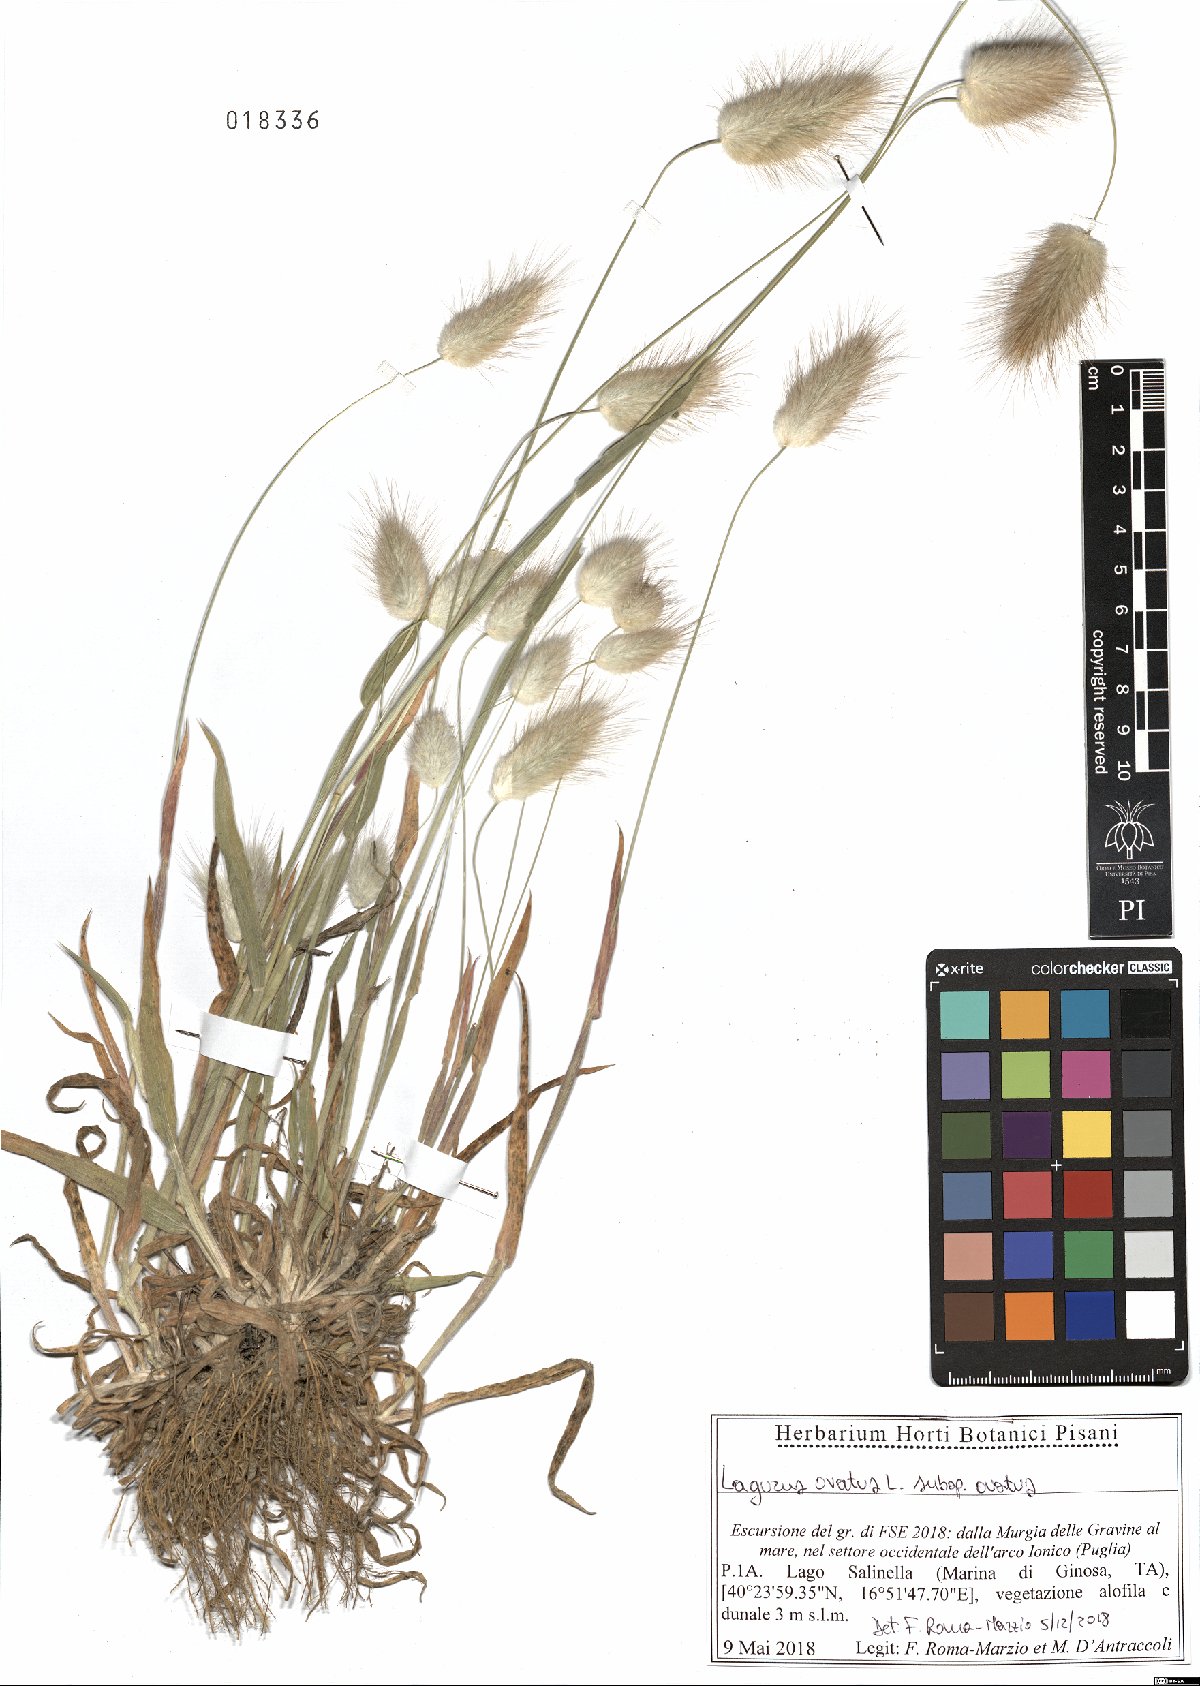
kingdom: Plantae
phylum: Tracheophyta
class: Liliopsida
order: Poales
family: Poaceae
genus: Lagurus
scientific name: Lagurus ovatus
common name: Hare's-tail
